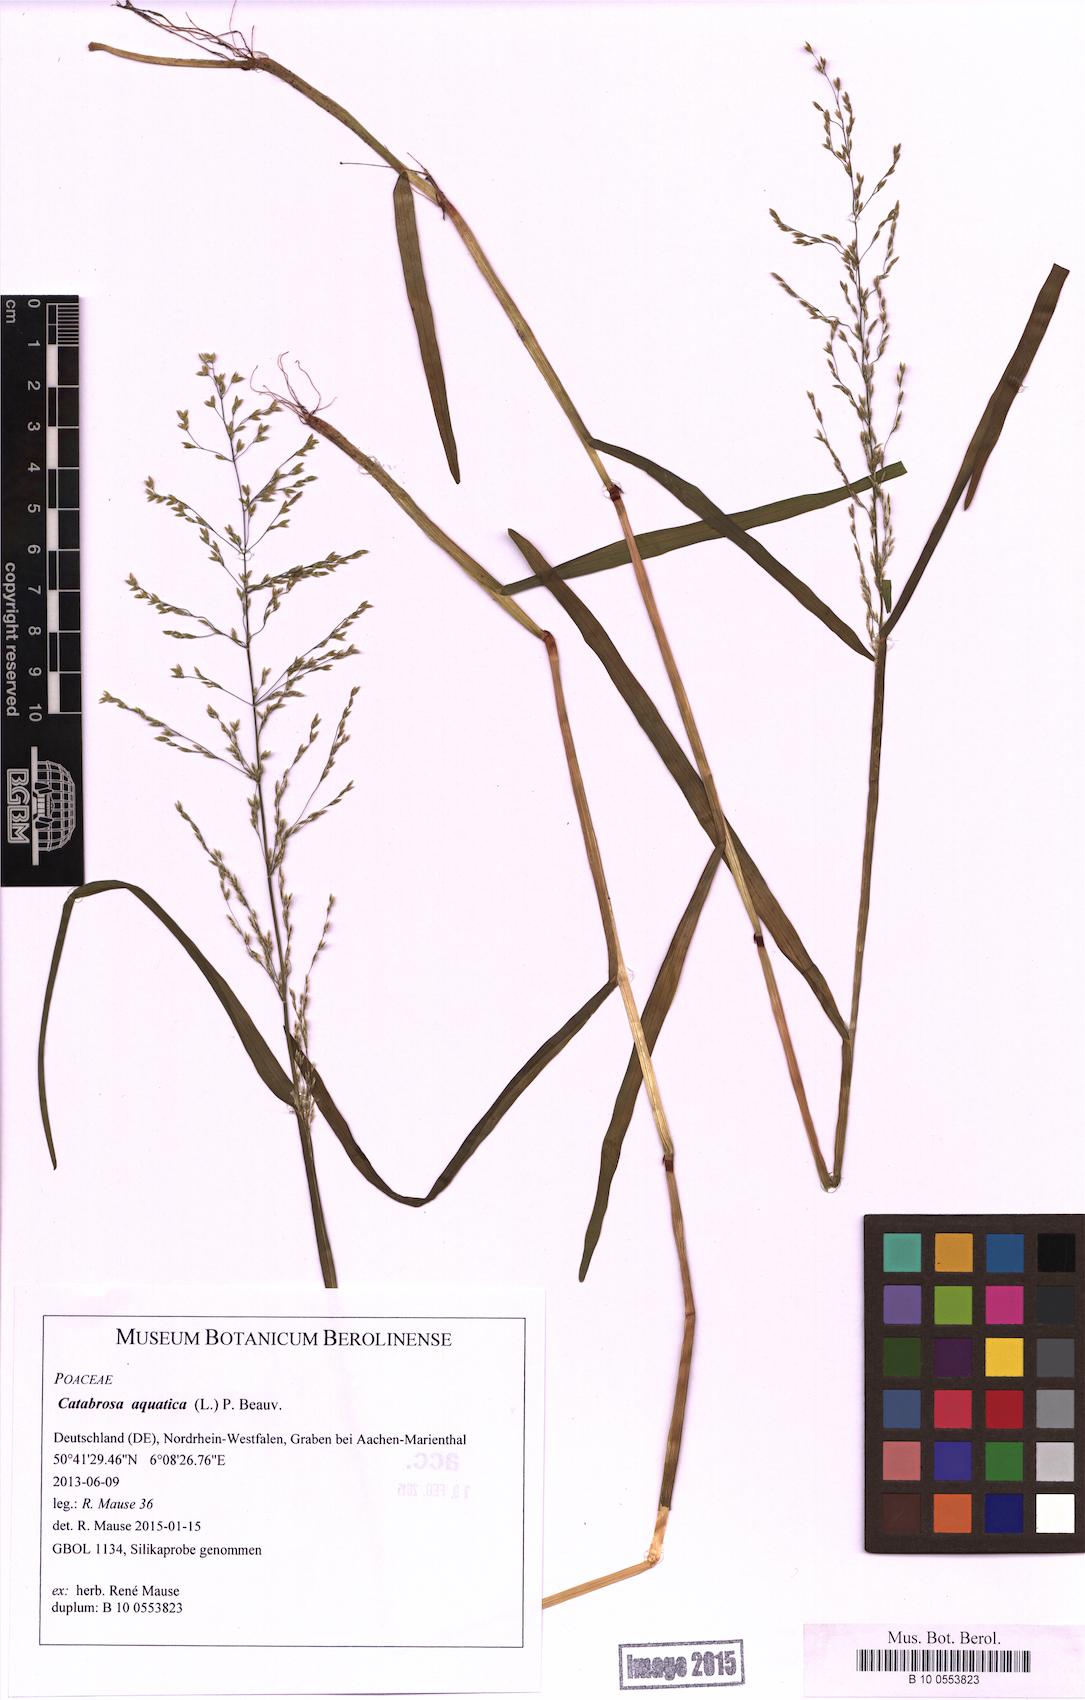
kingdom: Plantae
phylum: Tracheophyta
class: Liliopsida
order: Poales
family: Poaceae
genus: Catabrosa
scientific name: Catabrosa aquatica
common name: Whorl-grass
